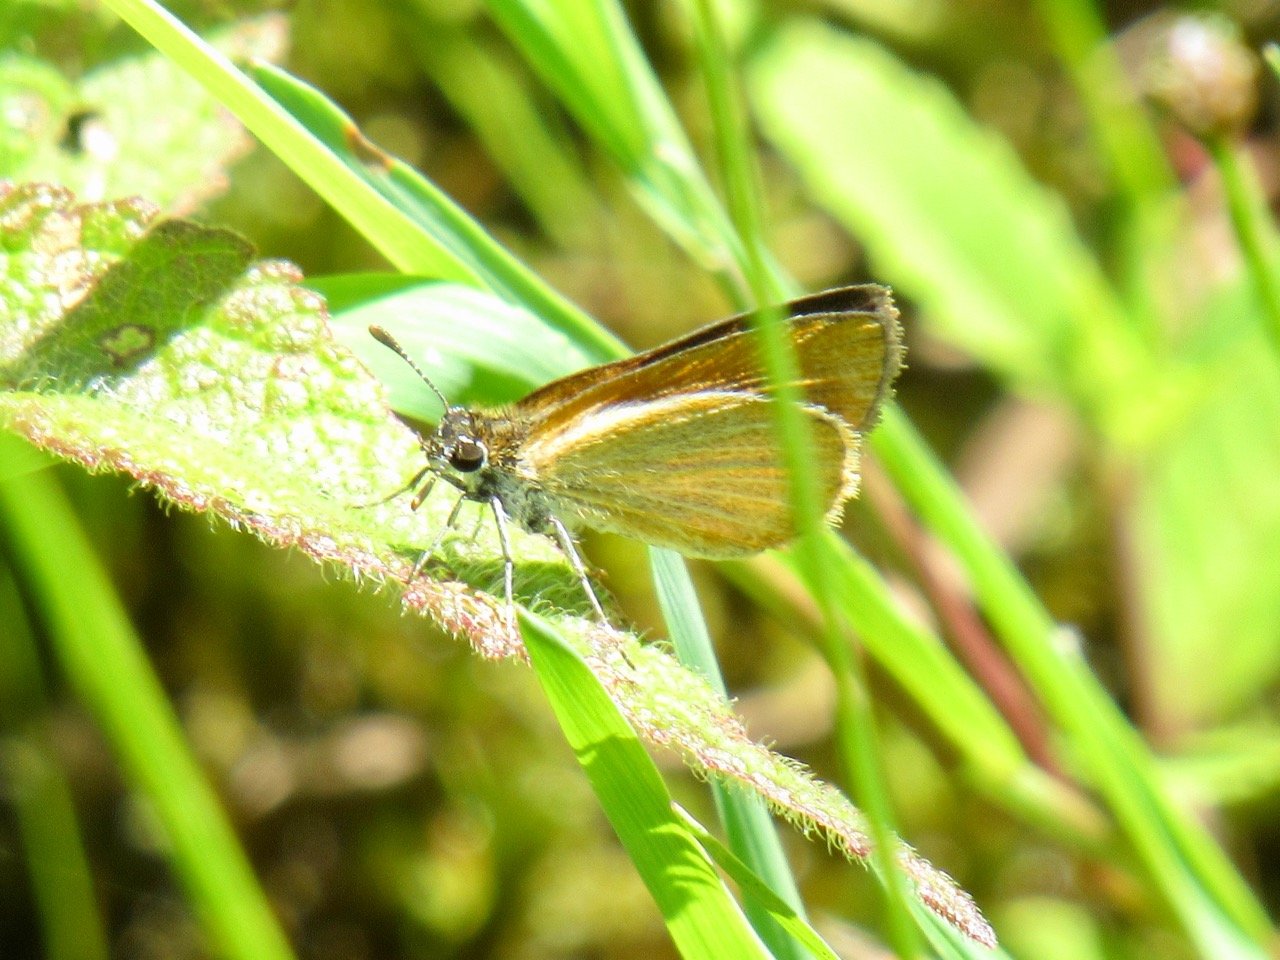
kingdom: Animalia
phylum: Arthropoda
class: Insecta
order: Lepidoptera
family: Hesperiidae
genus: Ancyloxypha
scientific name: Ancyloxypha numitor
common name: Least Skipper
